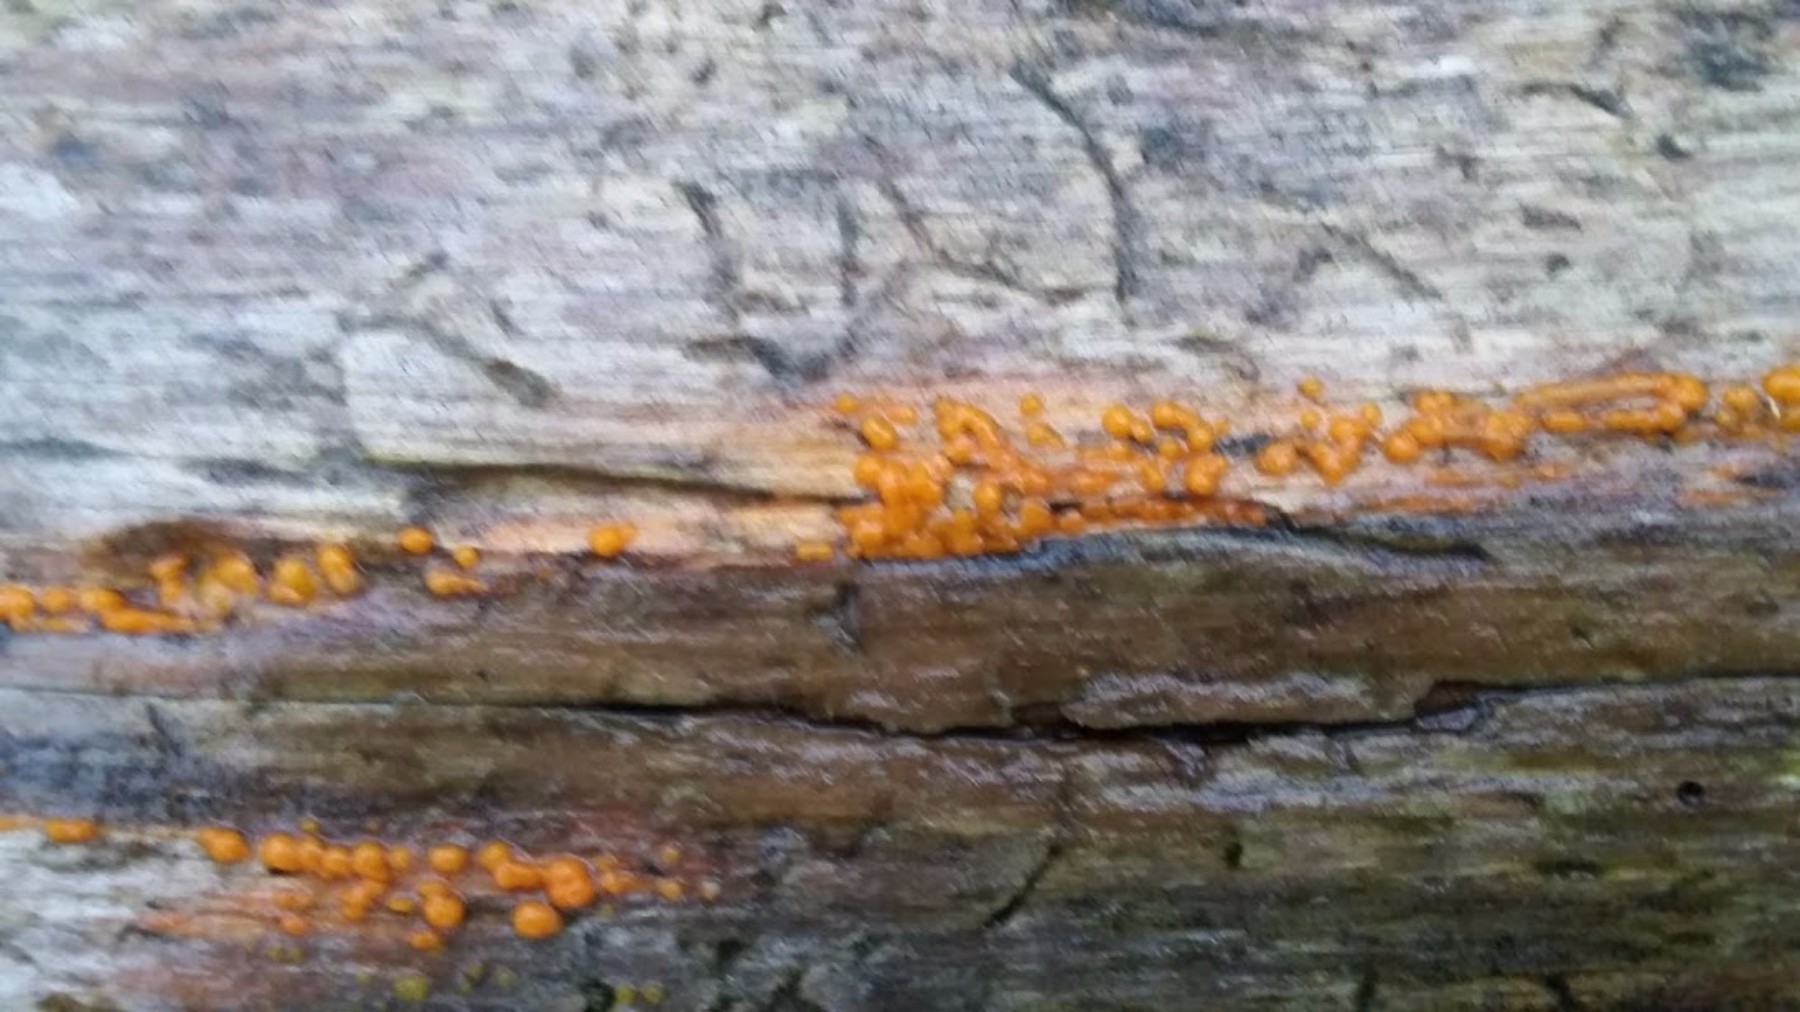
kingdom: Fungi
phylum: Basidiomycota
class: Dacrymycetes
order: Dacrymycetales
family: Dacrymycetaceae
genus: Dacrymyces
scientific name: Dacrymyces stillatus
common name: almindelig tåresvamp
